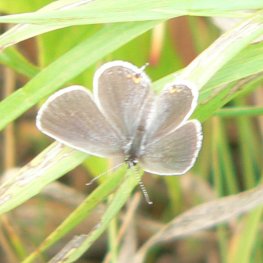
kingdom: Animalia
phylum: Arthropoda
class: Insecta
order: Lepidoptera
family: Lycaenidae
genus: Elkalyce
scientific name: Elkalyce comyntas
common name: Eastern Tailed-Blue
